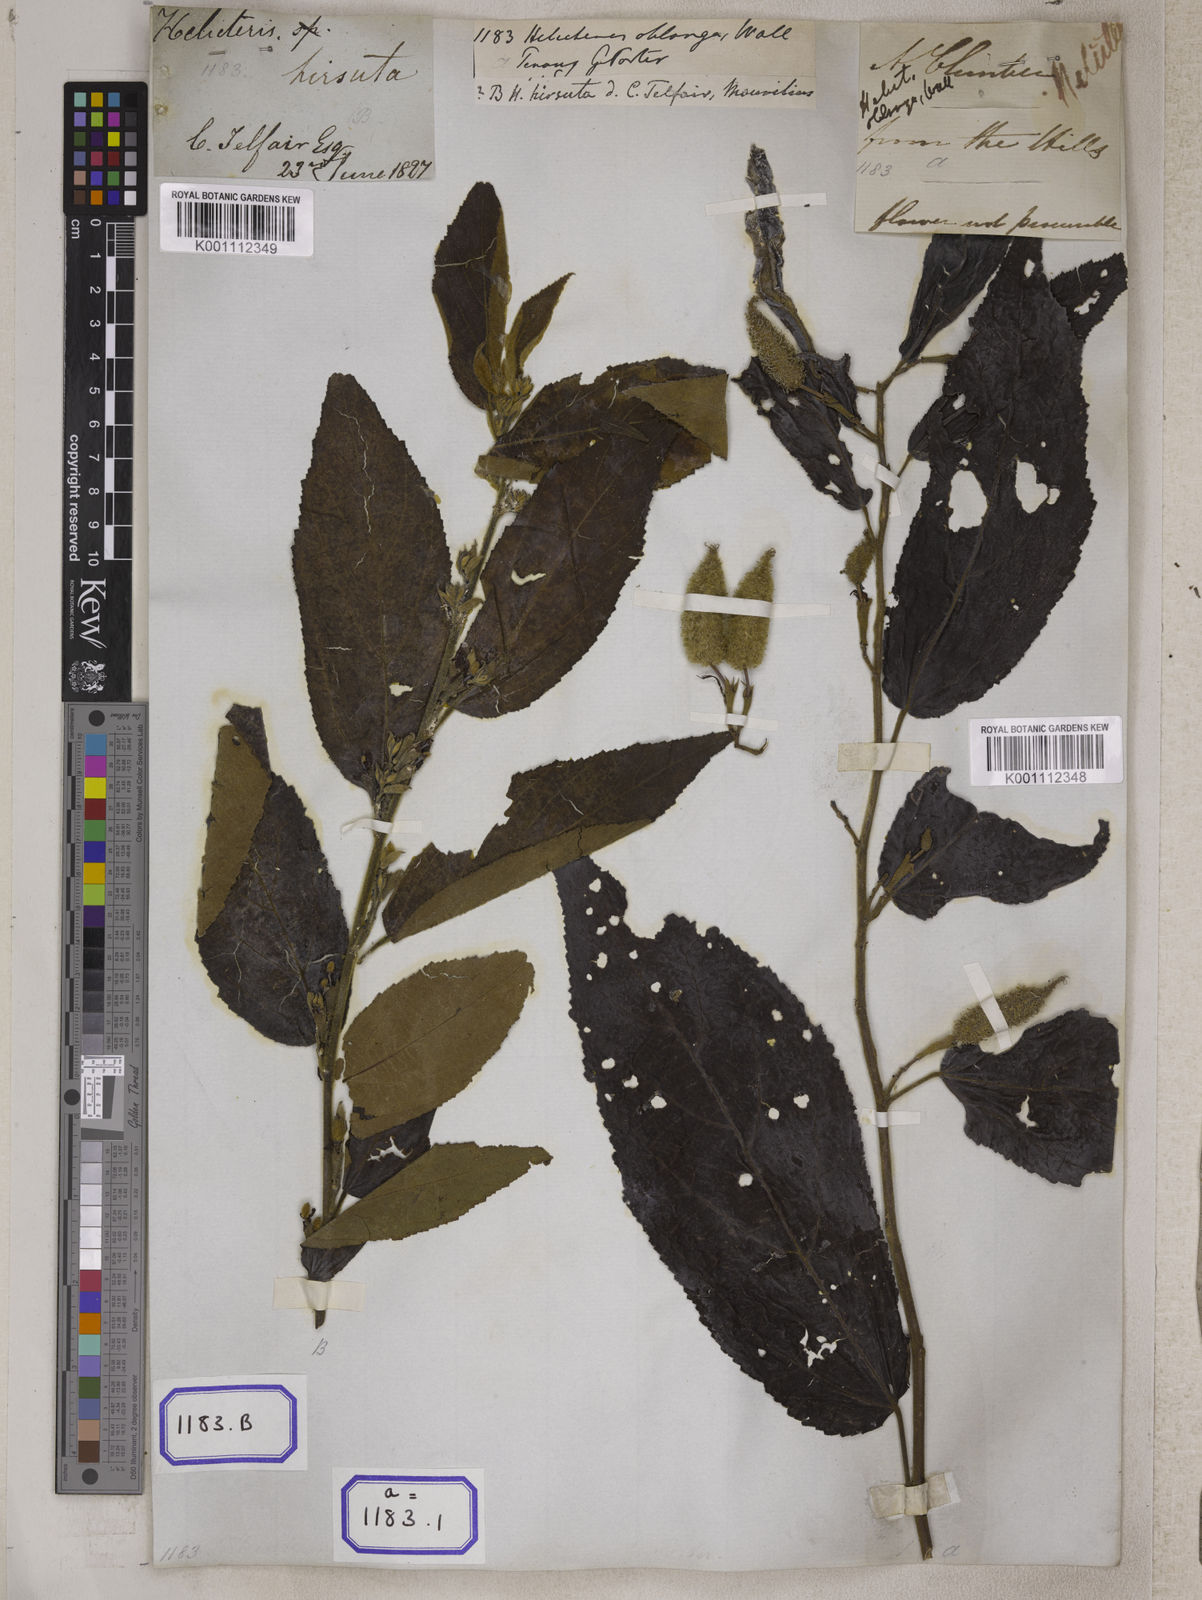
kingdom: Plantae
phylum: Tracheophyta
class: Magnoliopsida
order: Malvales
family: Malvaceae
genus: Helicteres
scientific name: Helicteres
